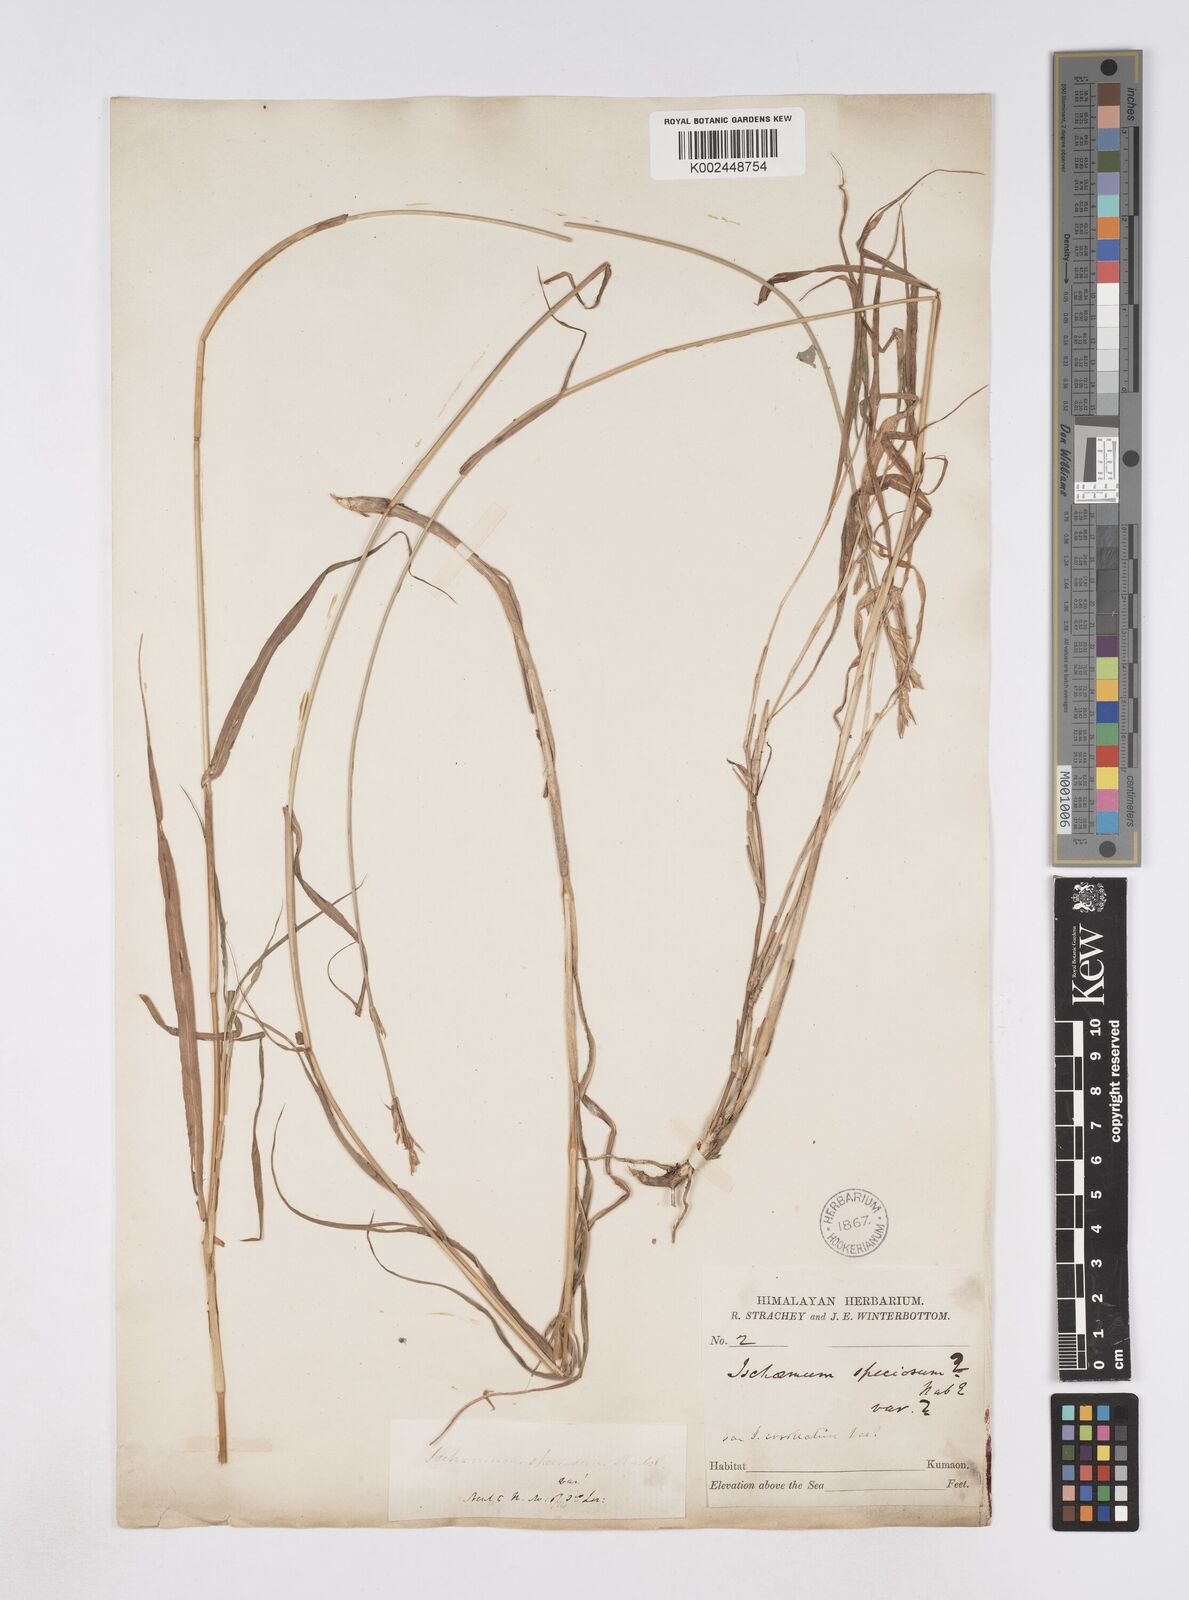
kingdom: Plantae
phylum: Tracheophyta
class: Liliopsida
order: Poales
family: Poaceae
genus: Phacelurus
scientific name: Phacelurus speciosus
